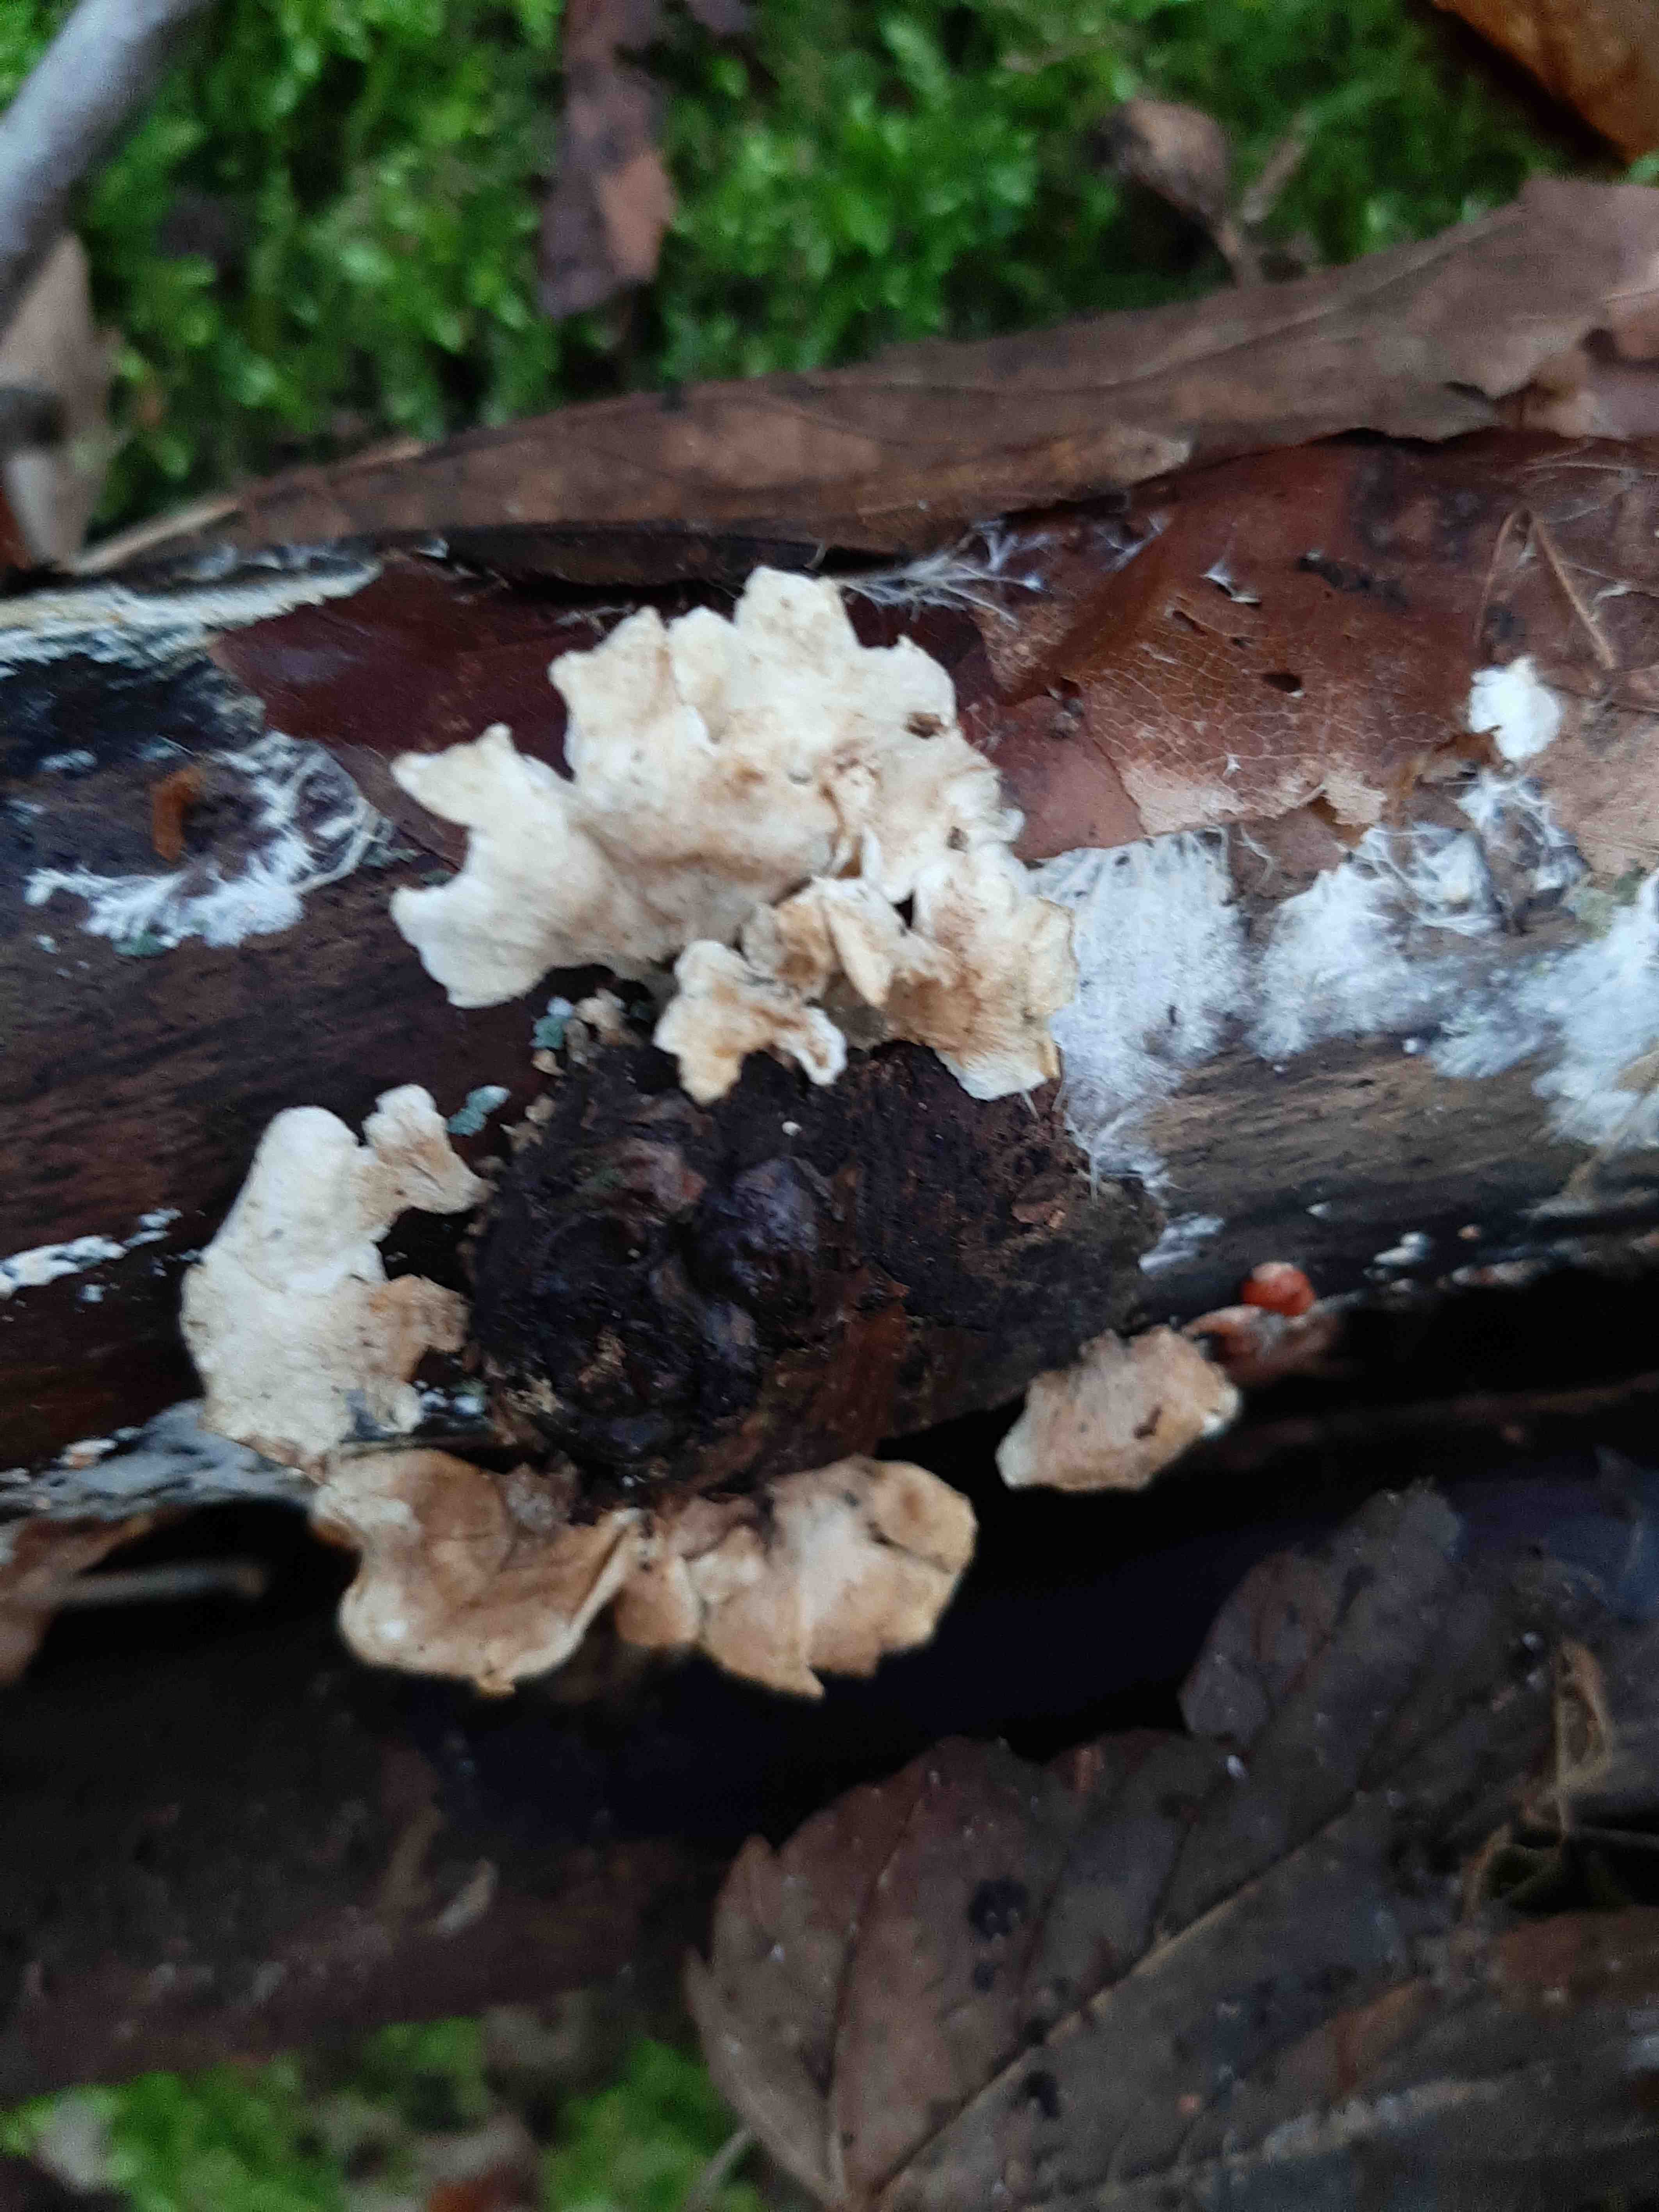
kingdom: Fungi
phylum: Basidiomycota
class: Agaricomycetes
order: Amylocorticiales
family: Amylocorticiaceae
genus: Plicaturopsis
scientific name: Plicaturopsis crispa
